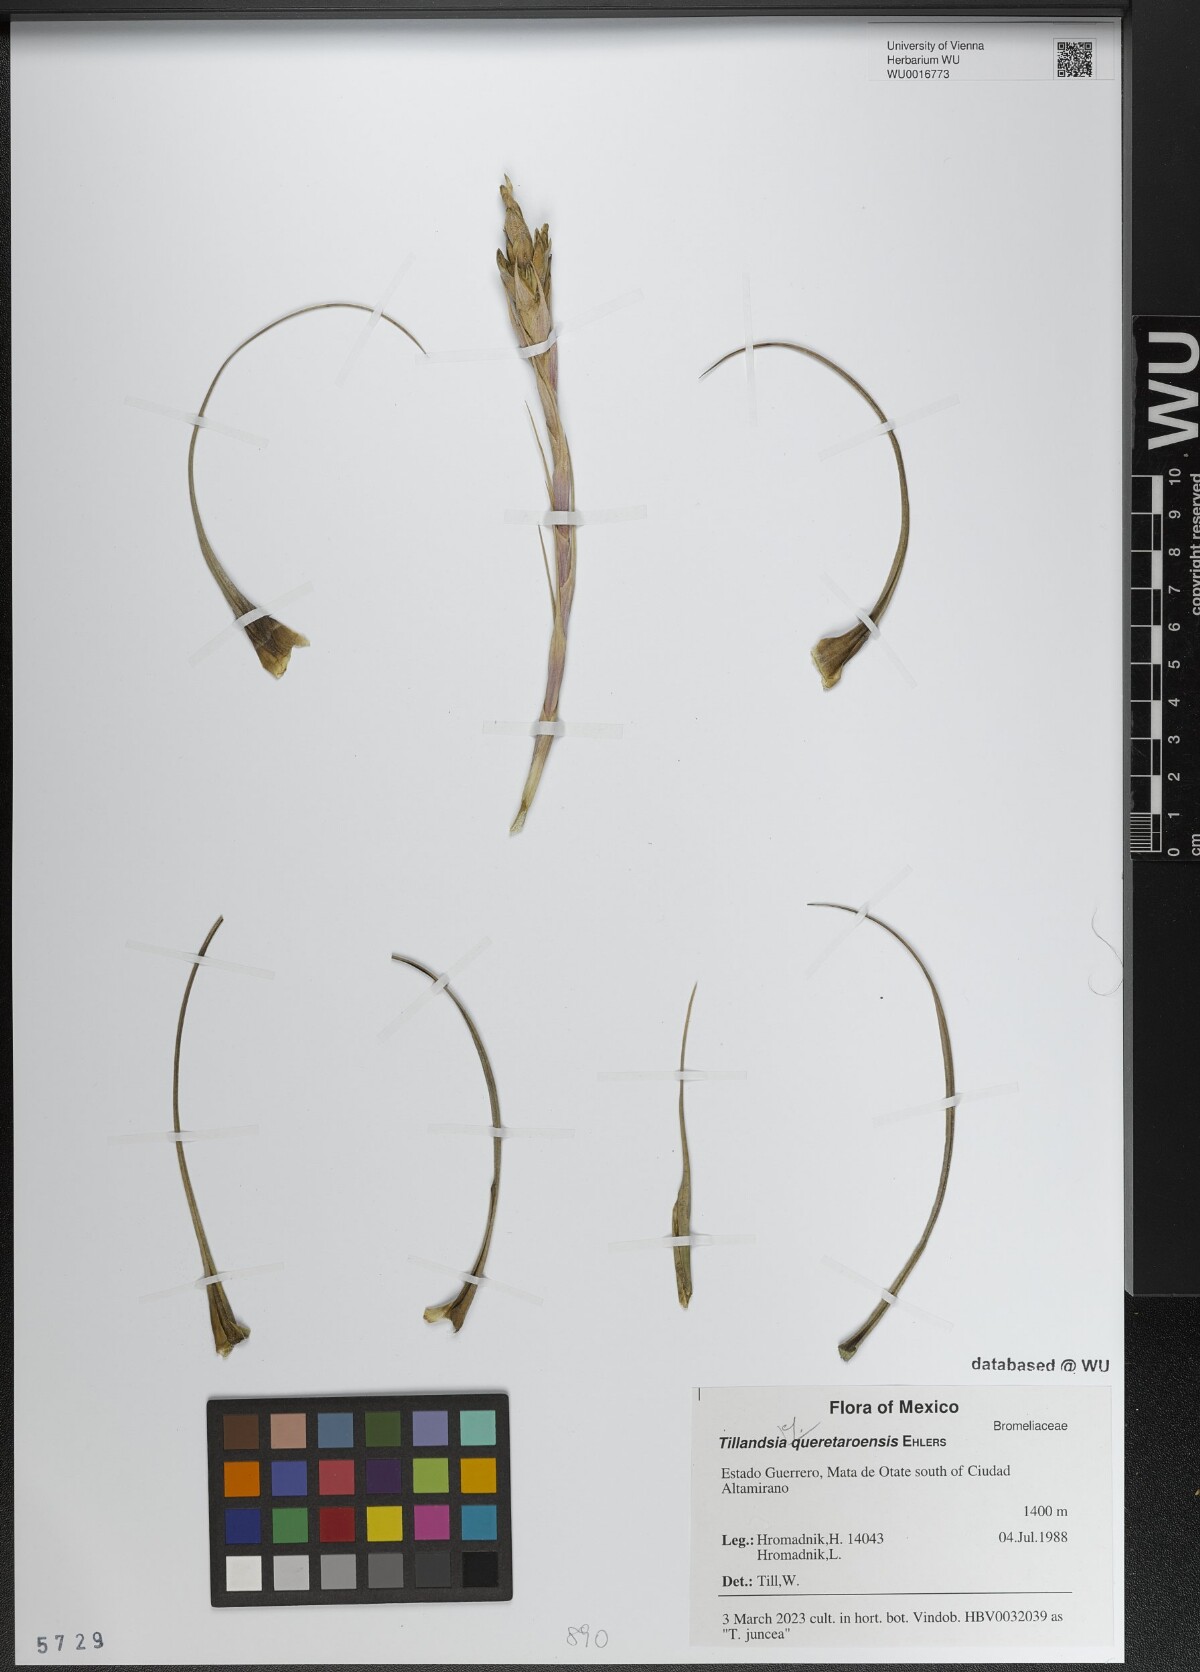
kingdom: Plantae
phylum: Tracheophyta
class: Liliopsida
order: Poales
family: Bromeliaceae
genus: Tillandsia
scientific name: Tillandsia queretaroensis
